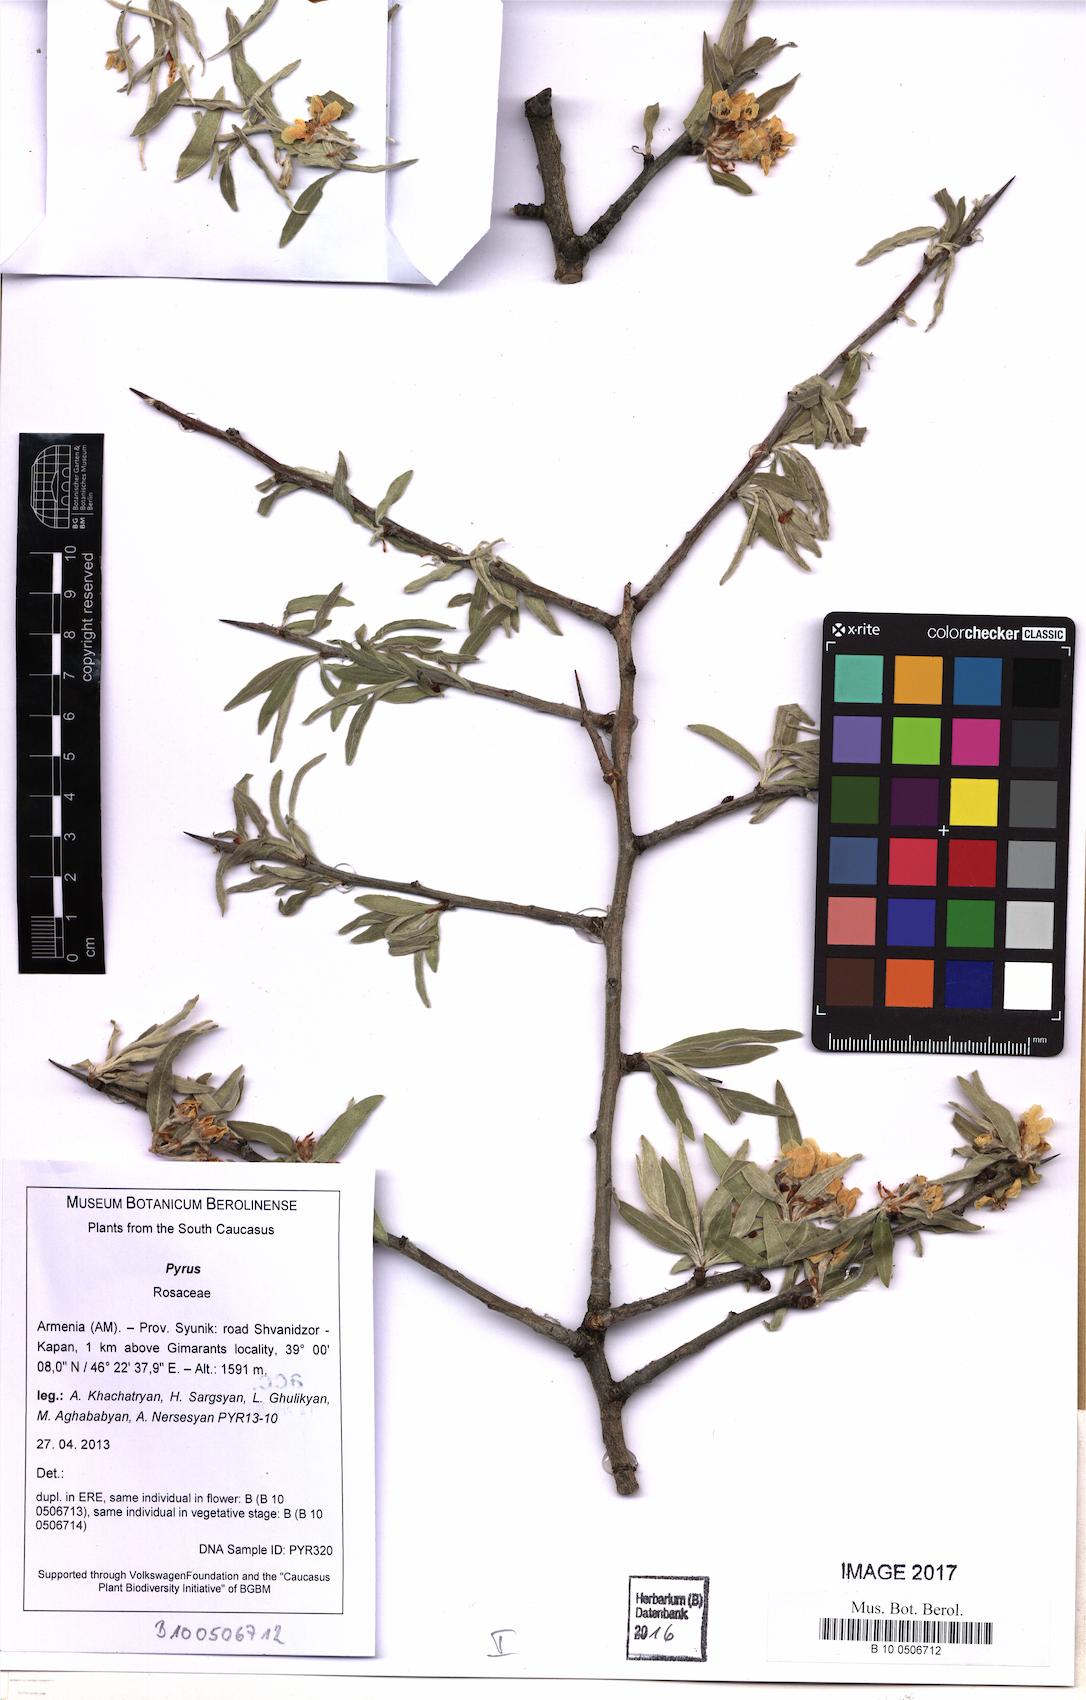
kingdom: Plantae
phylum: Tracheophyta
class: Magnoliopsida
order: Rosales
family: Rosaceae
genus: Pyrus
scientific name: Pyrus
